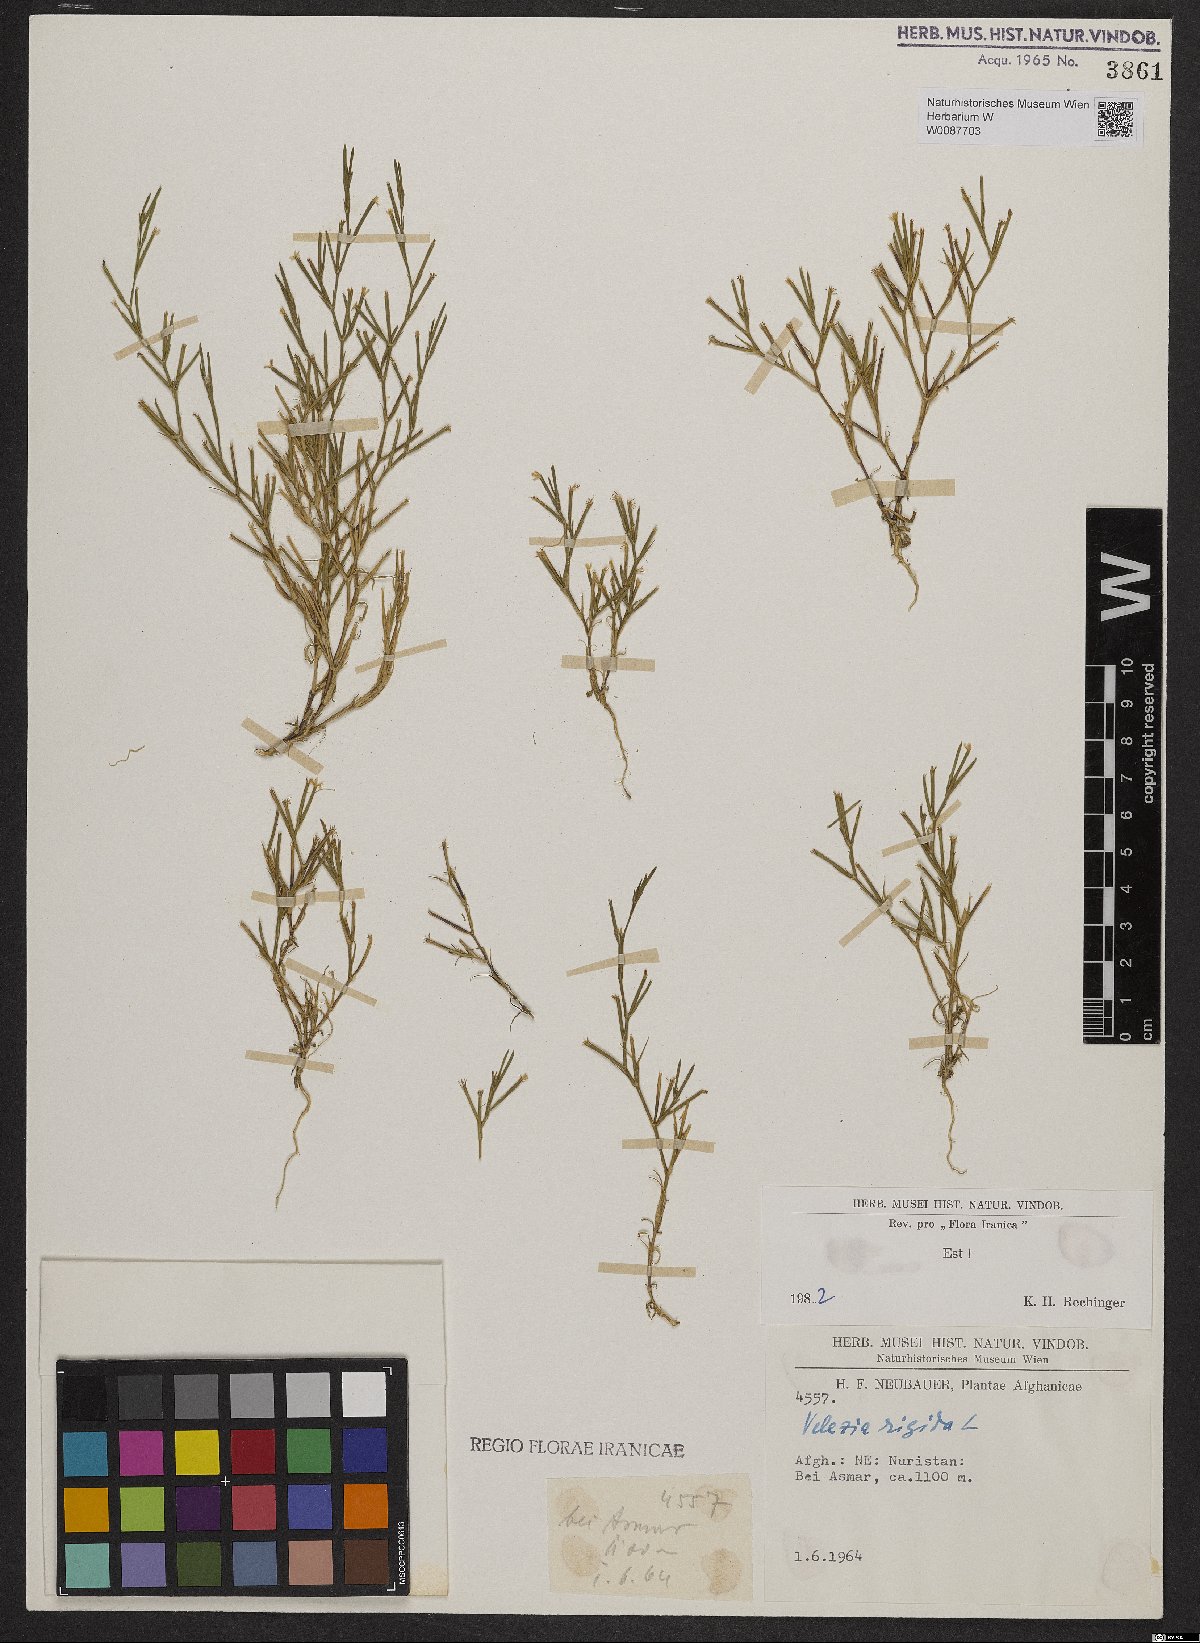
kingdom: Plantae
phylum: Tracheophyta
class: Magnoliopsida
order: Caryophyllales
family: Caryophyllaceae
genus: Dianthus
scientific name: Dianthus nudiflorus
